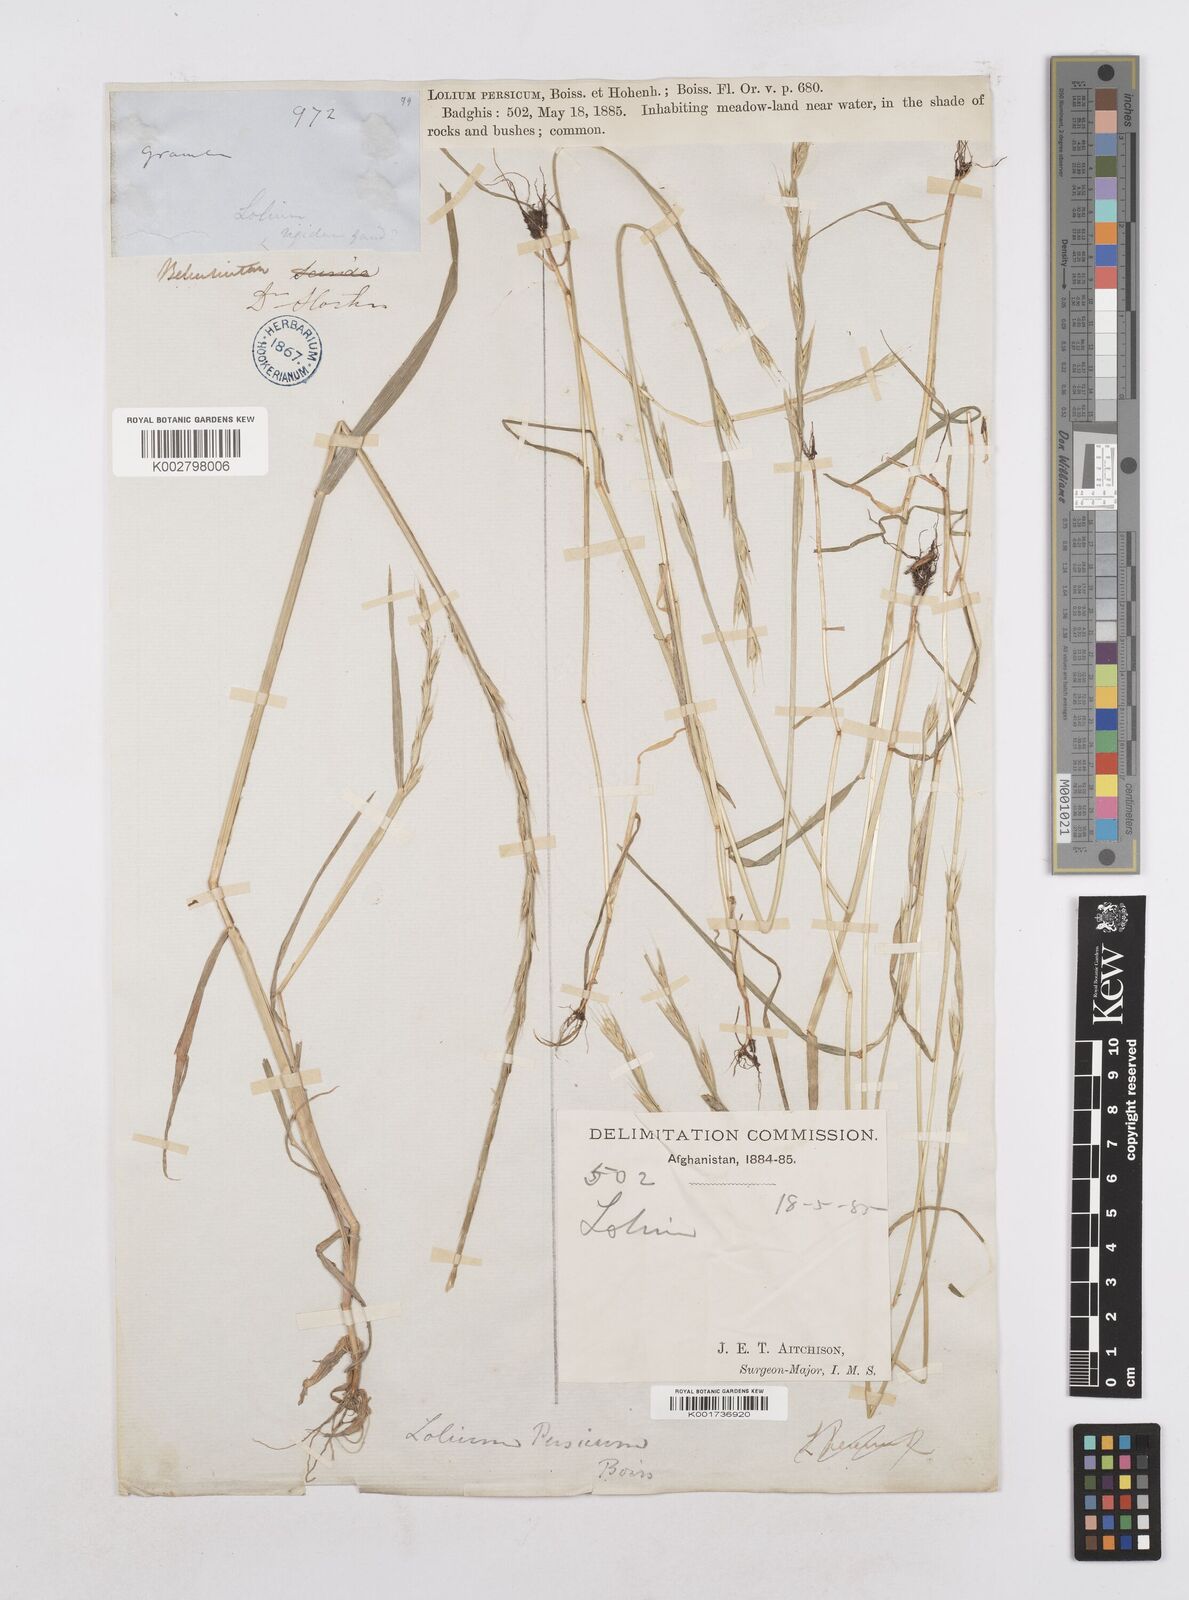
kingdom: Plantae
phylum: Tracheophyta
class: Liliopsida
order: Poales
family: Poaceae
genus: Lolium
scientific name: Lolium persicum
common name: Persian ryegrass
